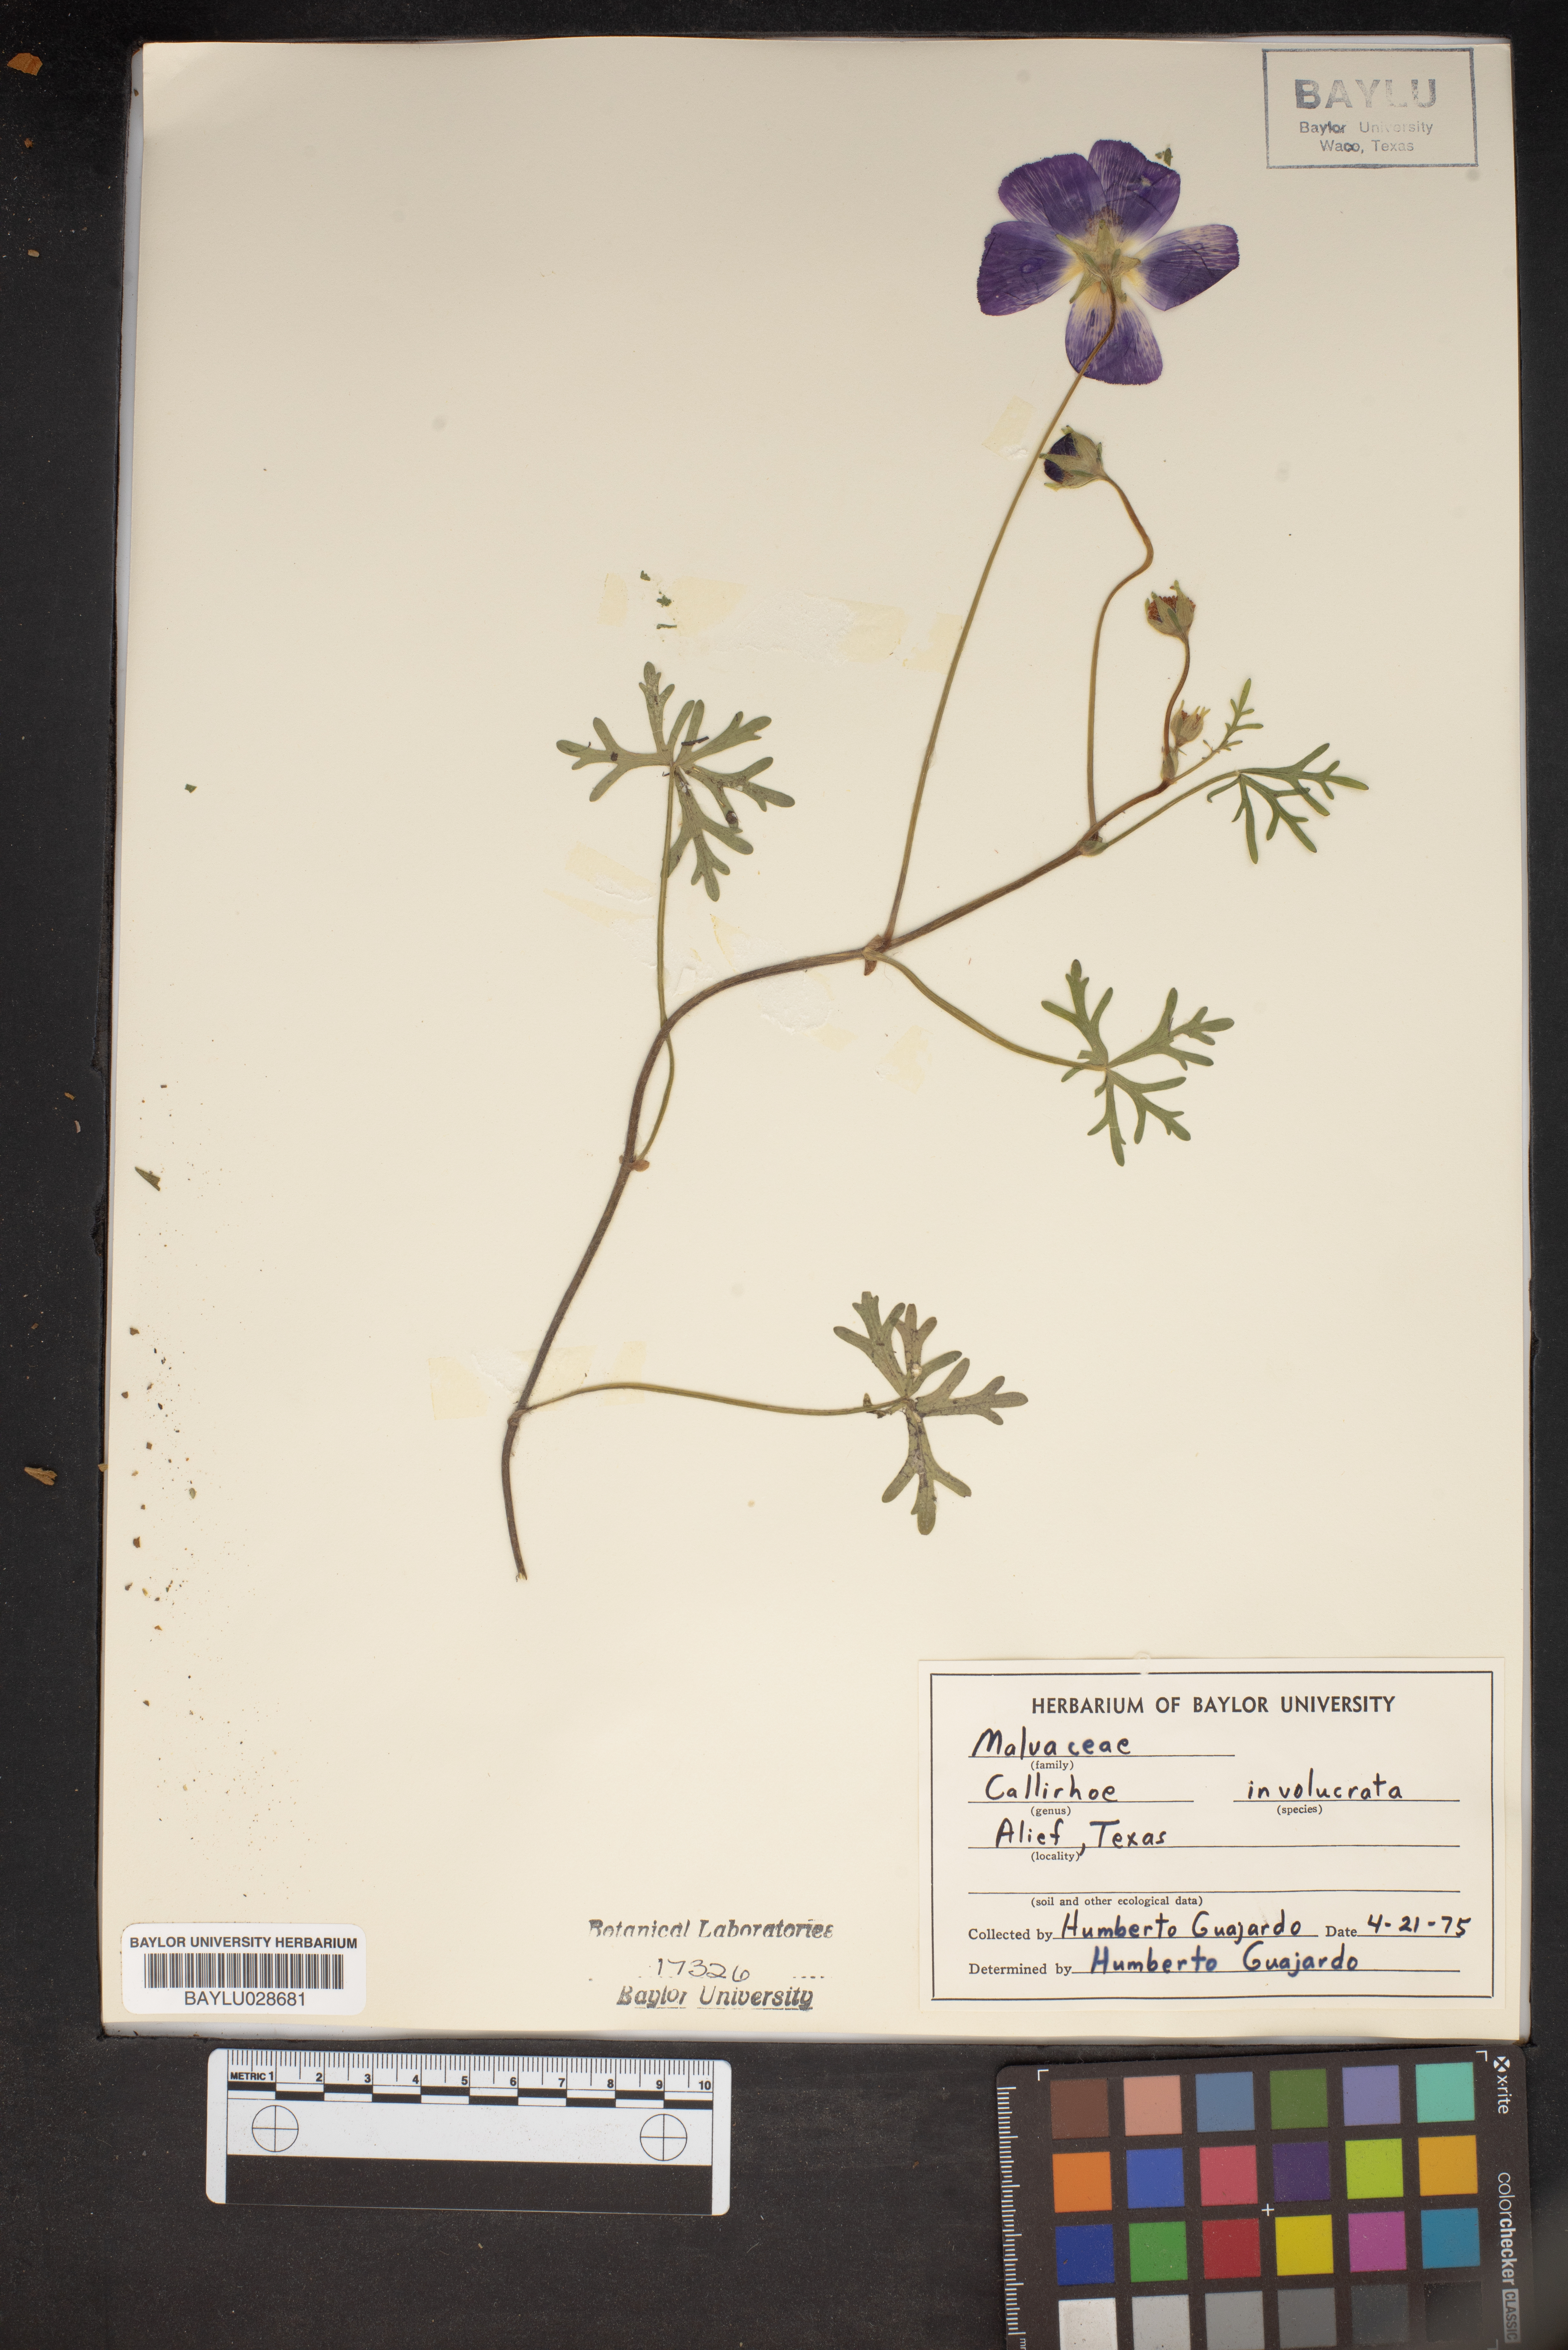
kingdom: Plantae
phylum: Tracheophyta
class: Magnoliopsida
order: Malvales
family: Malvaceae
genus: Callirhoe
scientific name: Callirhoe involucrata
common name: Purple poppy-mallow
